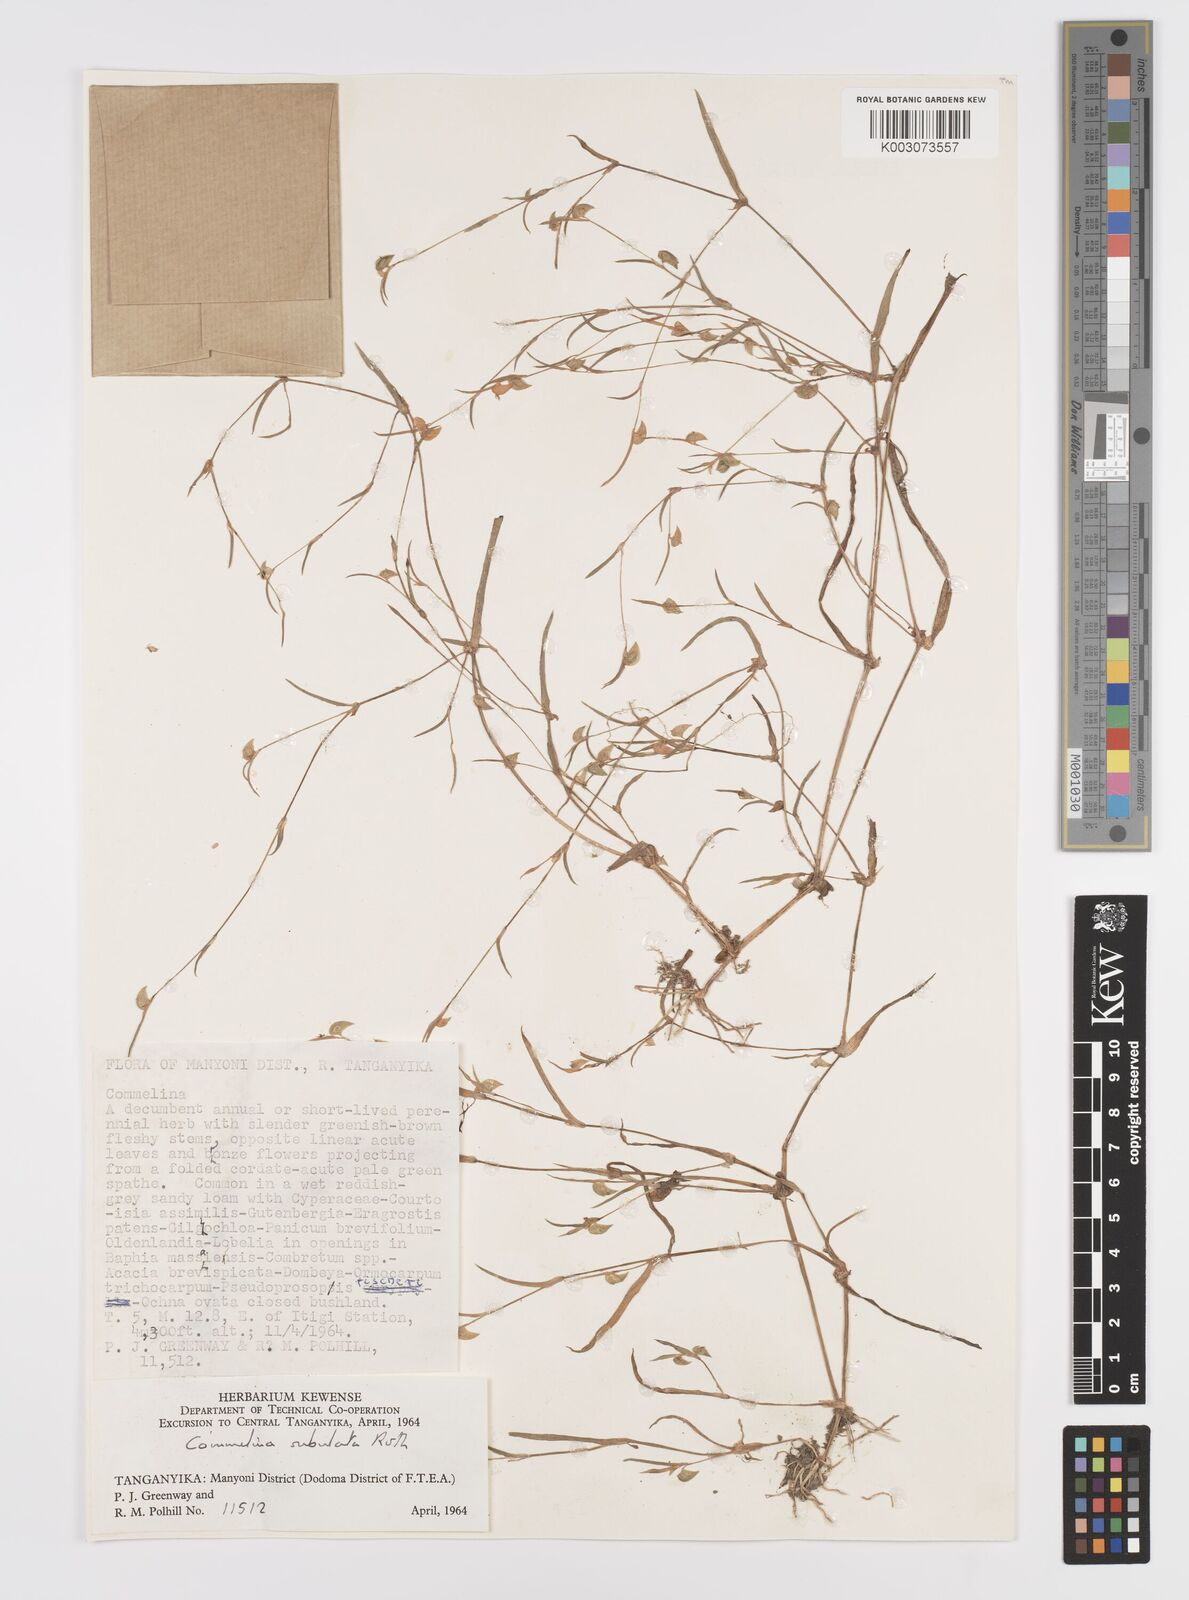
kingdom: Plantae
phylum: Tracheophyta
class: Liliopsida
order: Commelinales
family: Commelinaceae
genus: Commelina
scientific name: Commelina subulata
